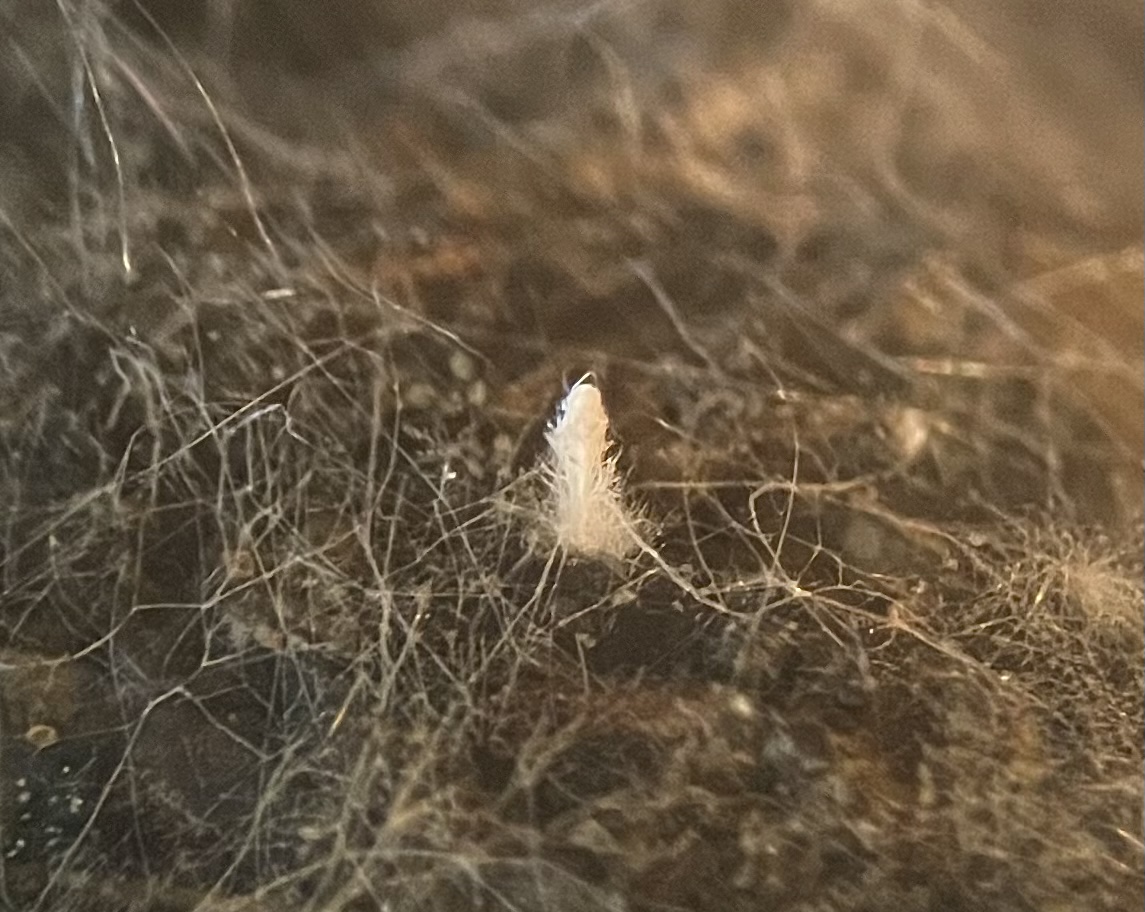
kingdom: Fungi
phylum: Ascomycota
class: Sordariomycetes
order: Hypocreales
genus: Stilbella
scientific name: Stilbella
